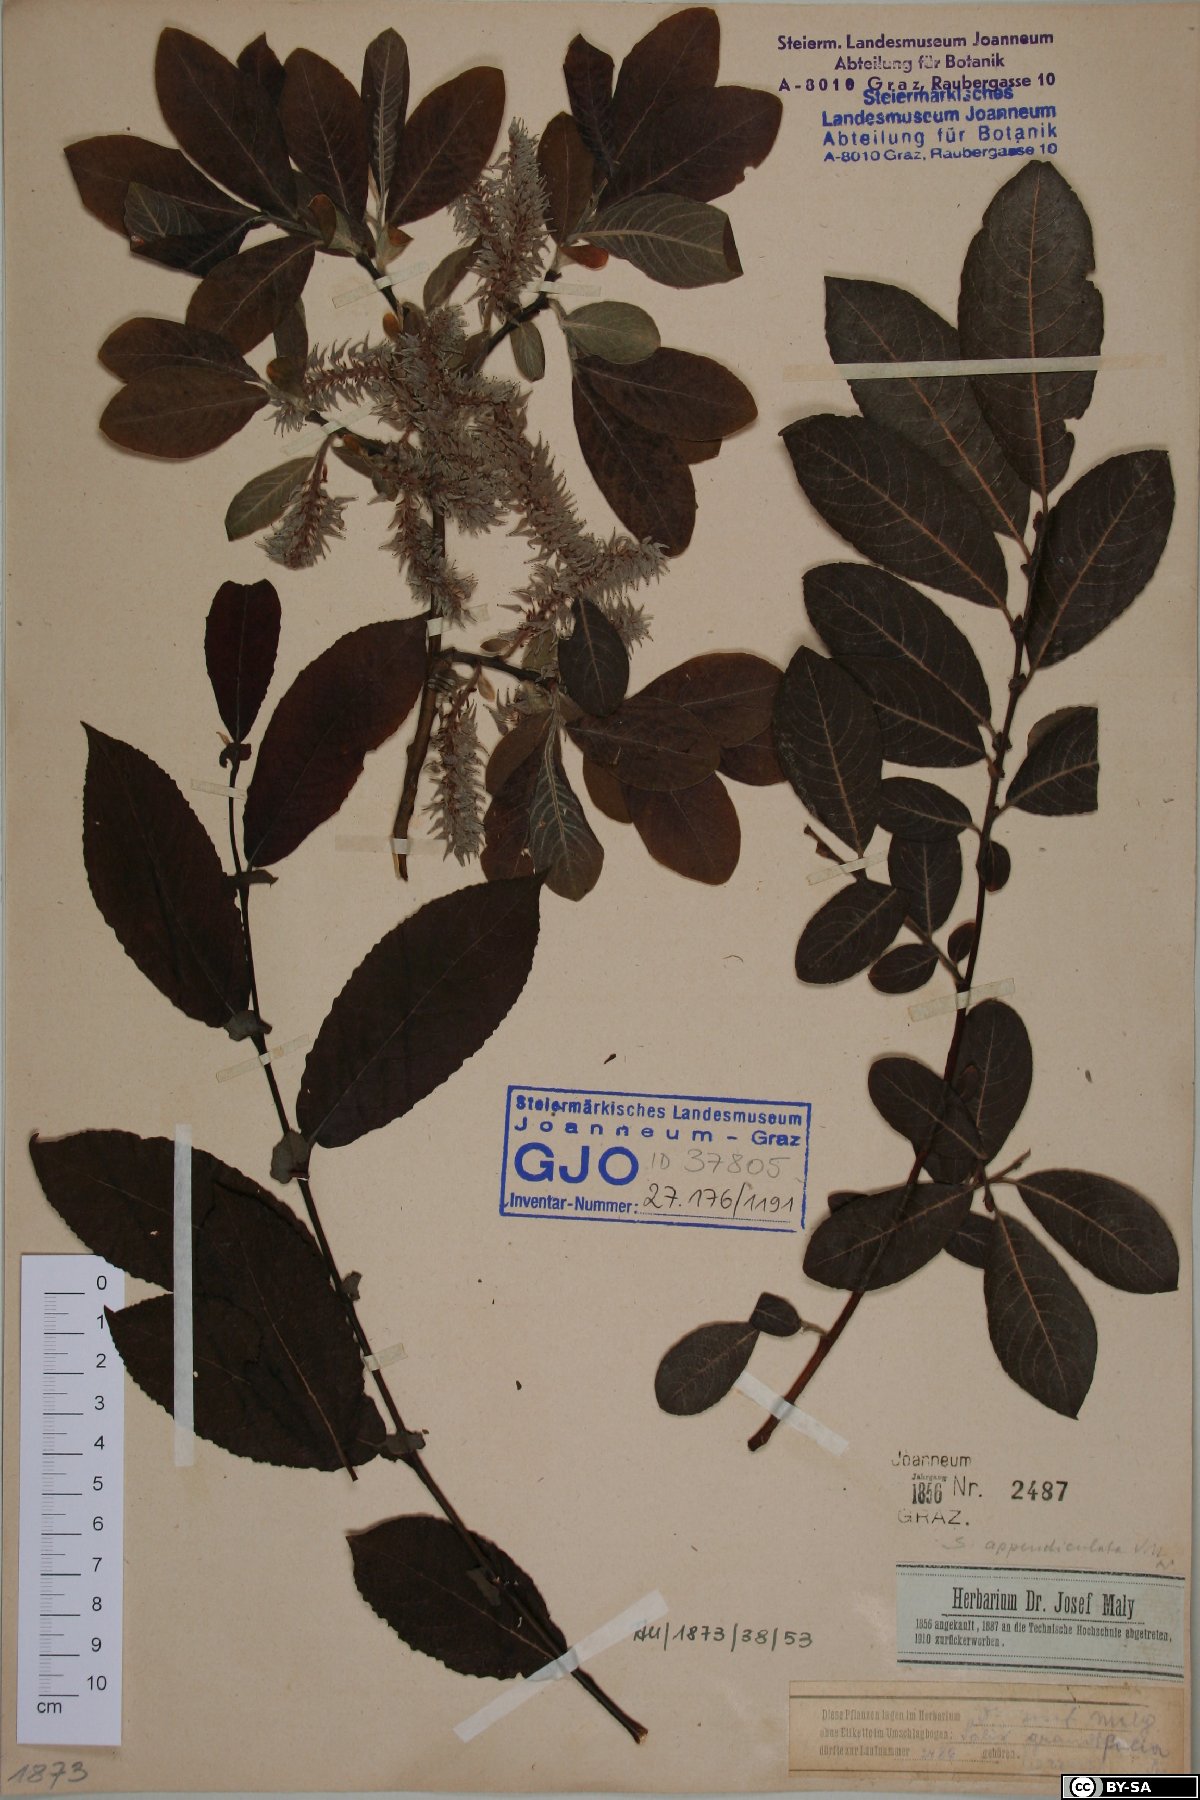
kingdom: Plantae
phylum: Tracheophyta
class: Magnoliopsida
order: Malpighiales
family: Salicaceae
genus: Salix
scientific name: Salix appendiculata
